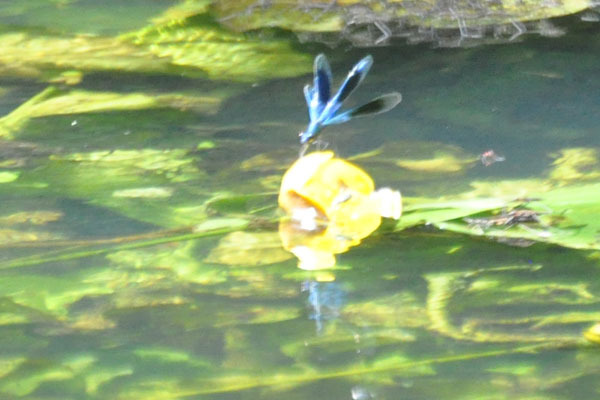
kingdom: Plantae
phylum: Tracheophyta
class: Magnoliopsida
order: Nymphaeales
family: Nymphaeaceae
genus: Nuphar
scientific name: Nuphar lutea
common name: Gul åkande
